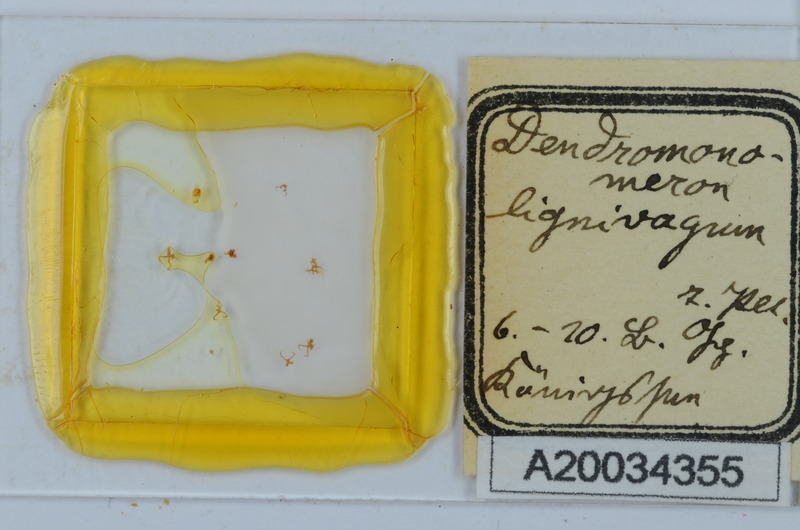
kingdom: Animalia
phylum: Arthropoda
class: Diplopoda
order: Chordeumatida
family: Attemsiidae
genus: Dendromonomeron
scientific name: Dendromonomeron lignivagum
